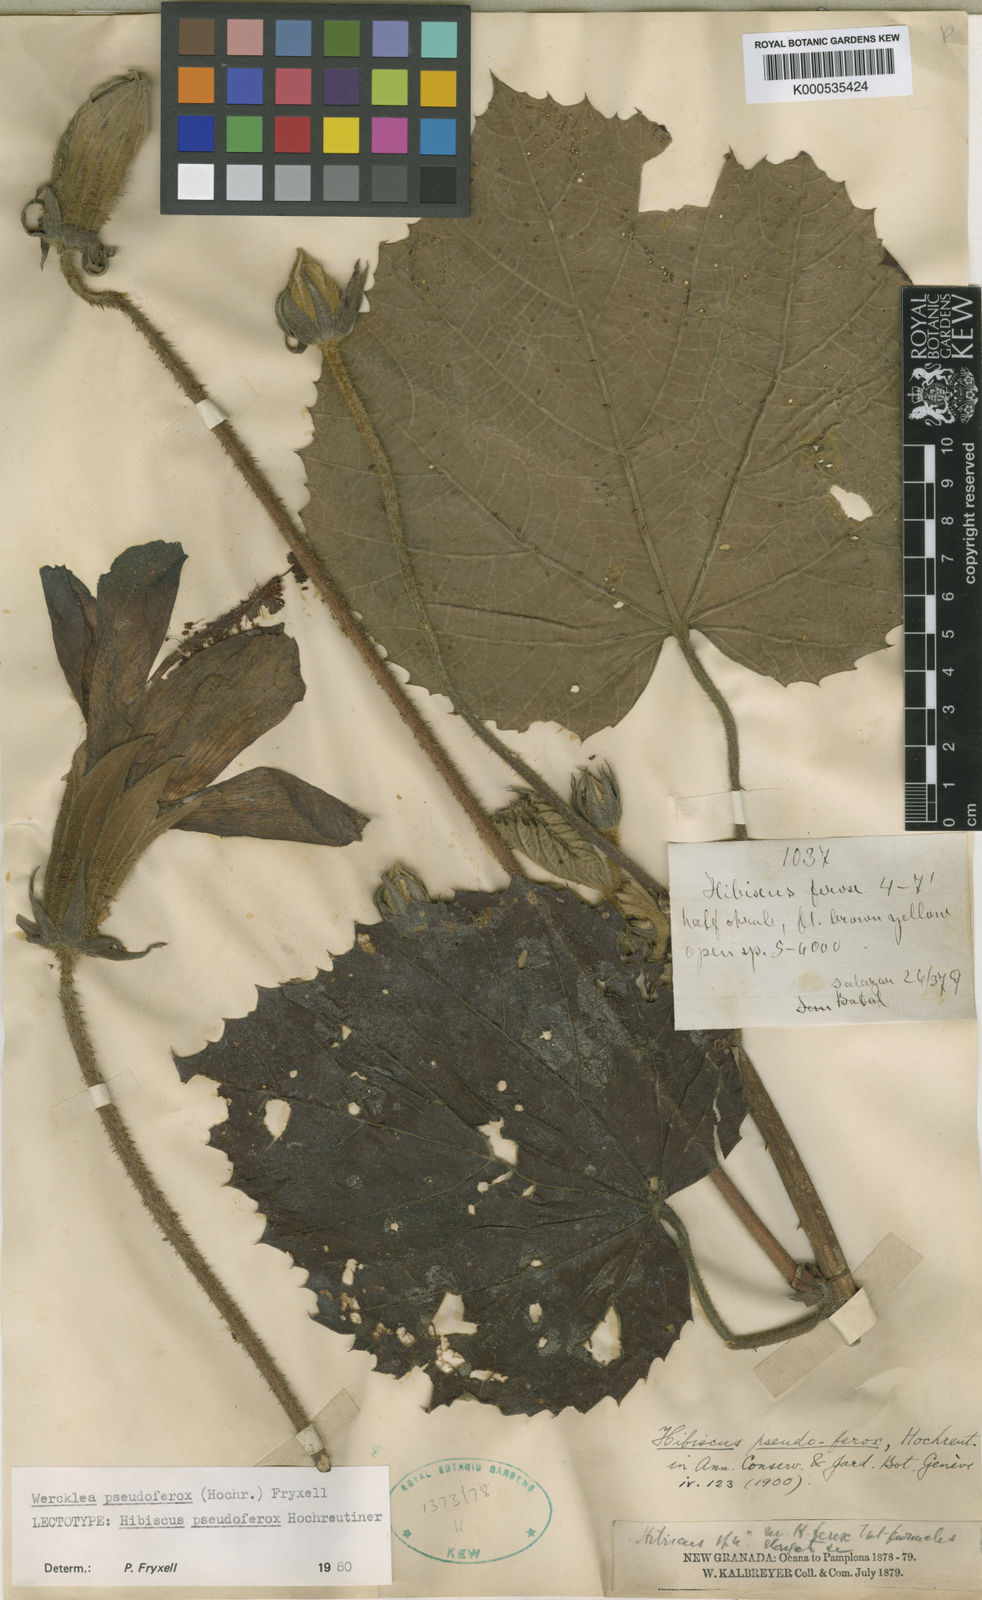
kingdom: Plantae
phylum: Tracheophyta
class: Magnoliopsida
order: Malvales
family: Malvaceae
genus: Wercklea
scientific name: Wercklea pseudoferox
